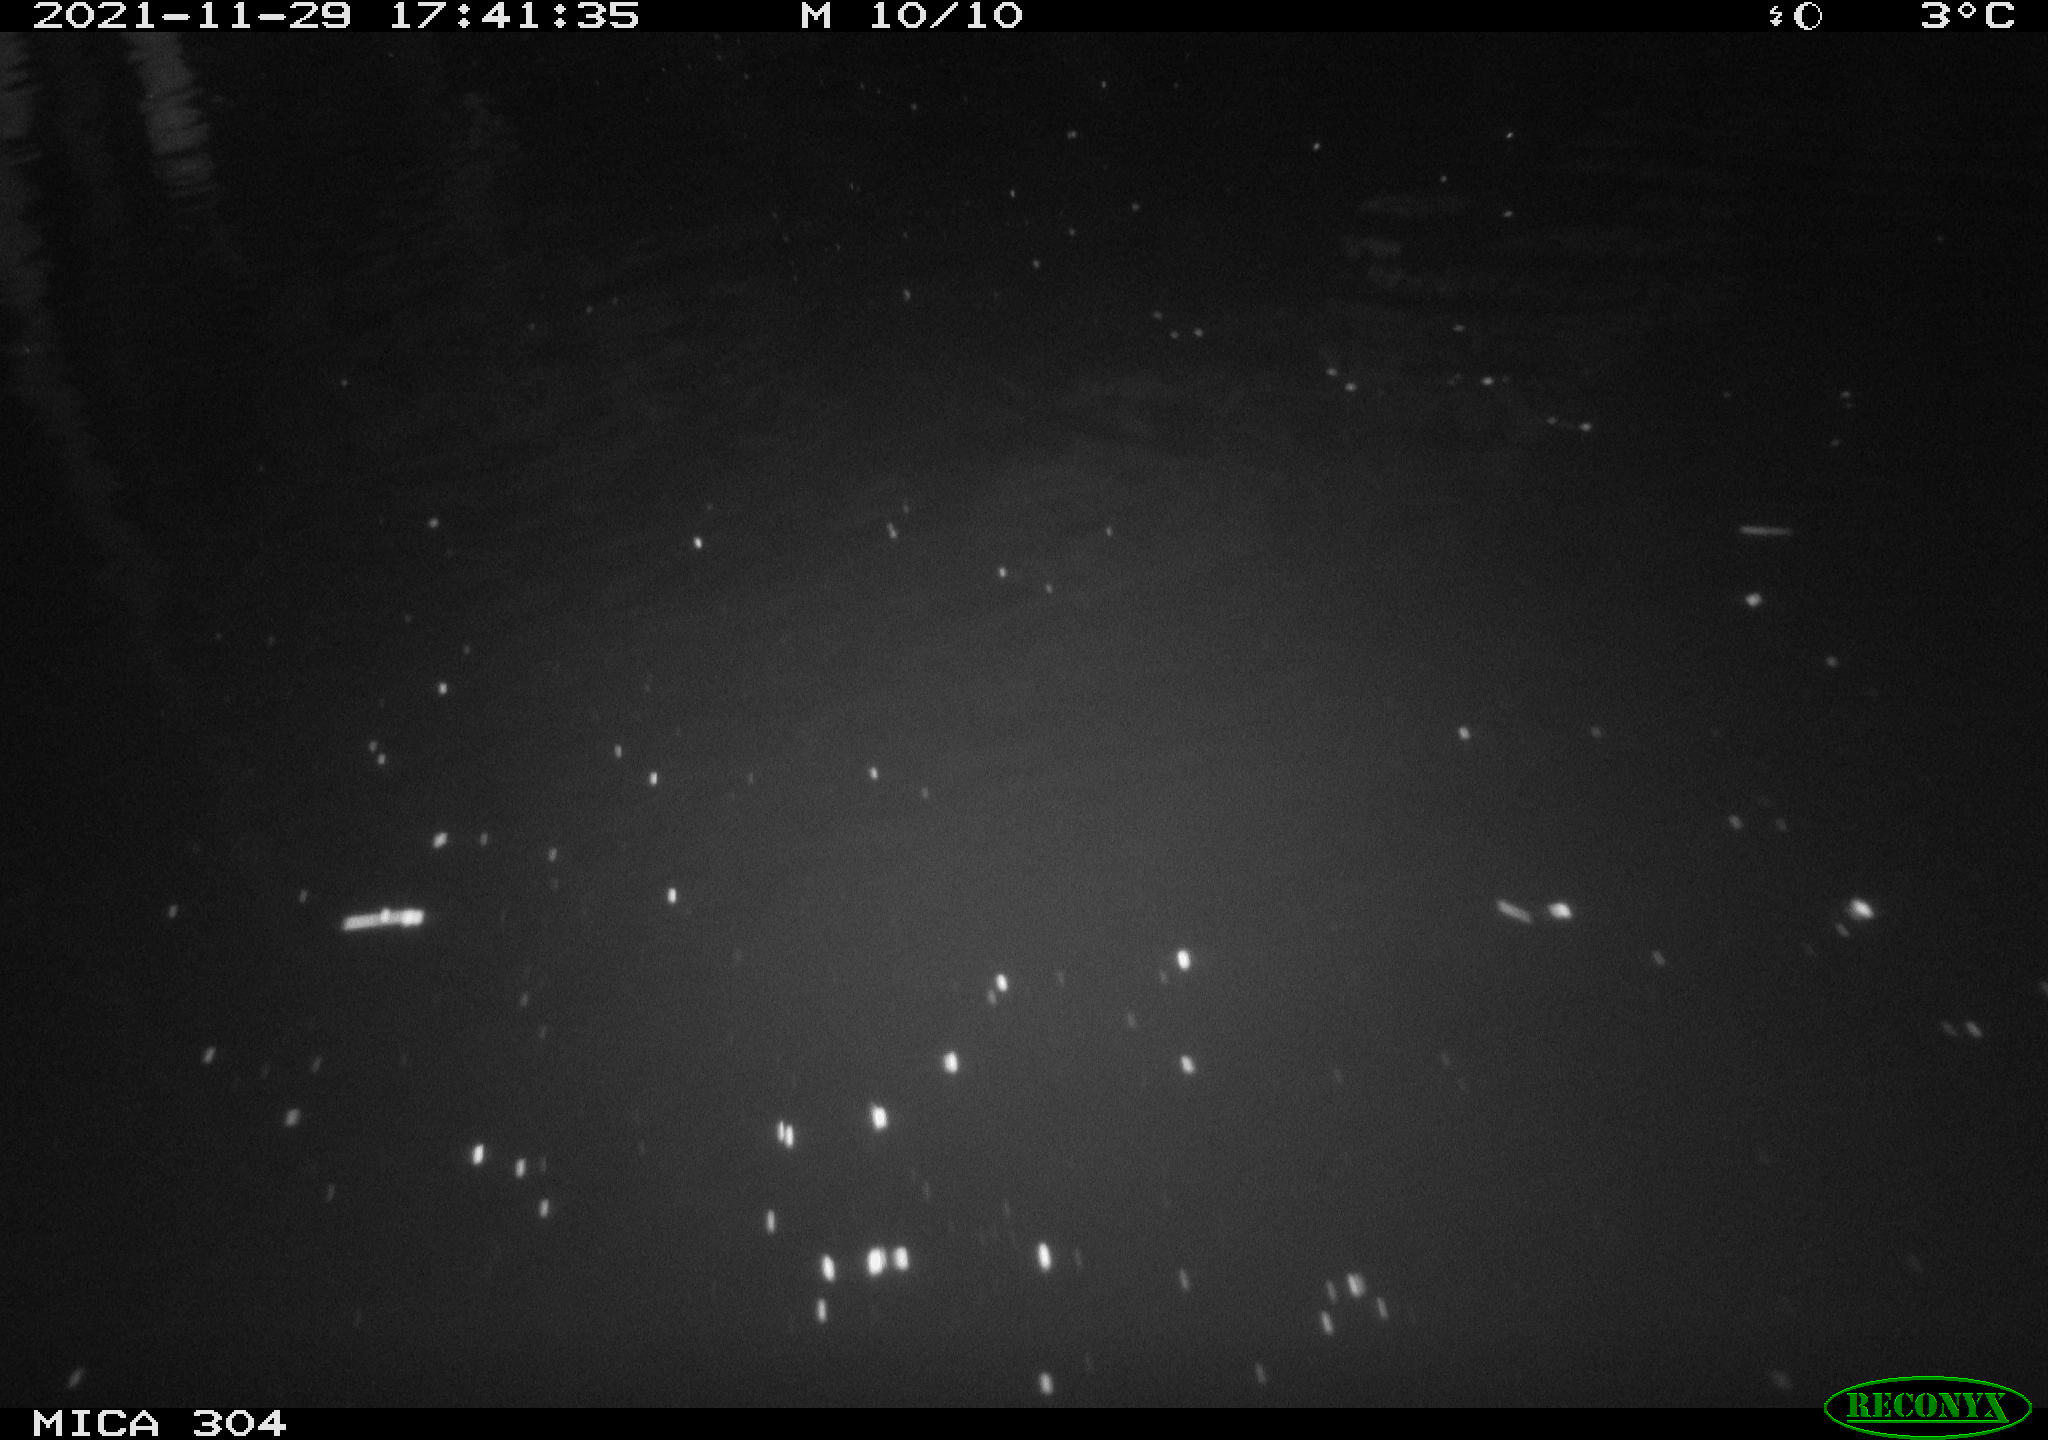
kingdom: Animalia
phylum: Chordata
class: Mammalia
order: Rodentia
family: Muridae
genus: Rattus
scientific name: Rattus norvegicus
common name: Brown rat
